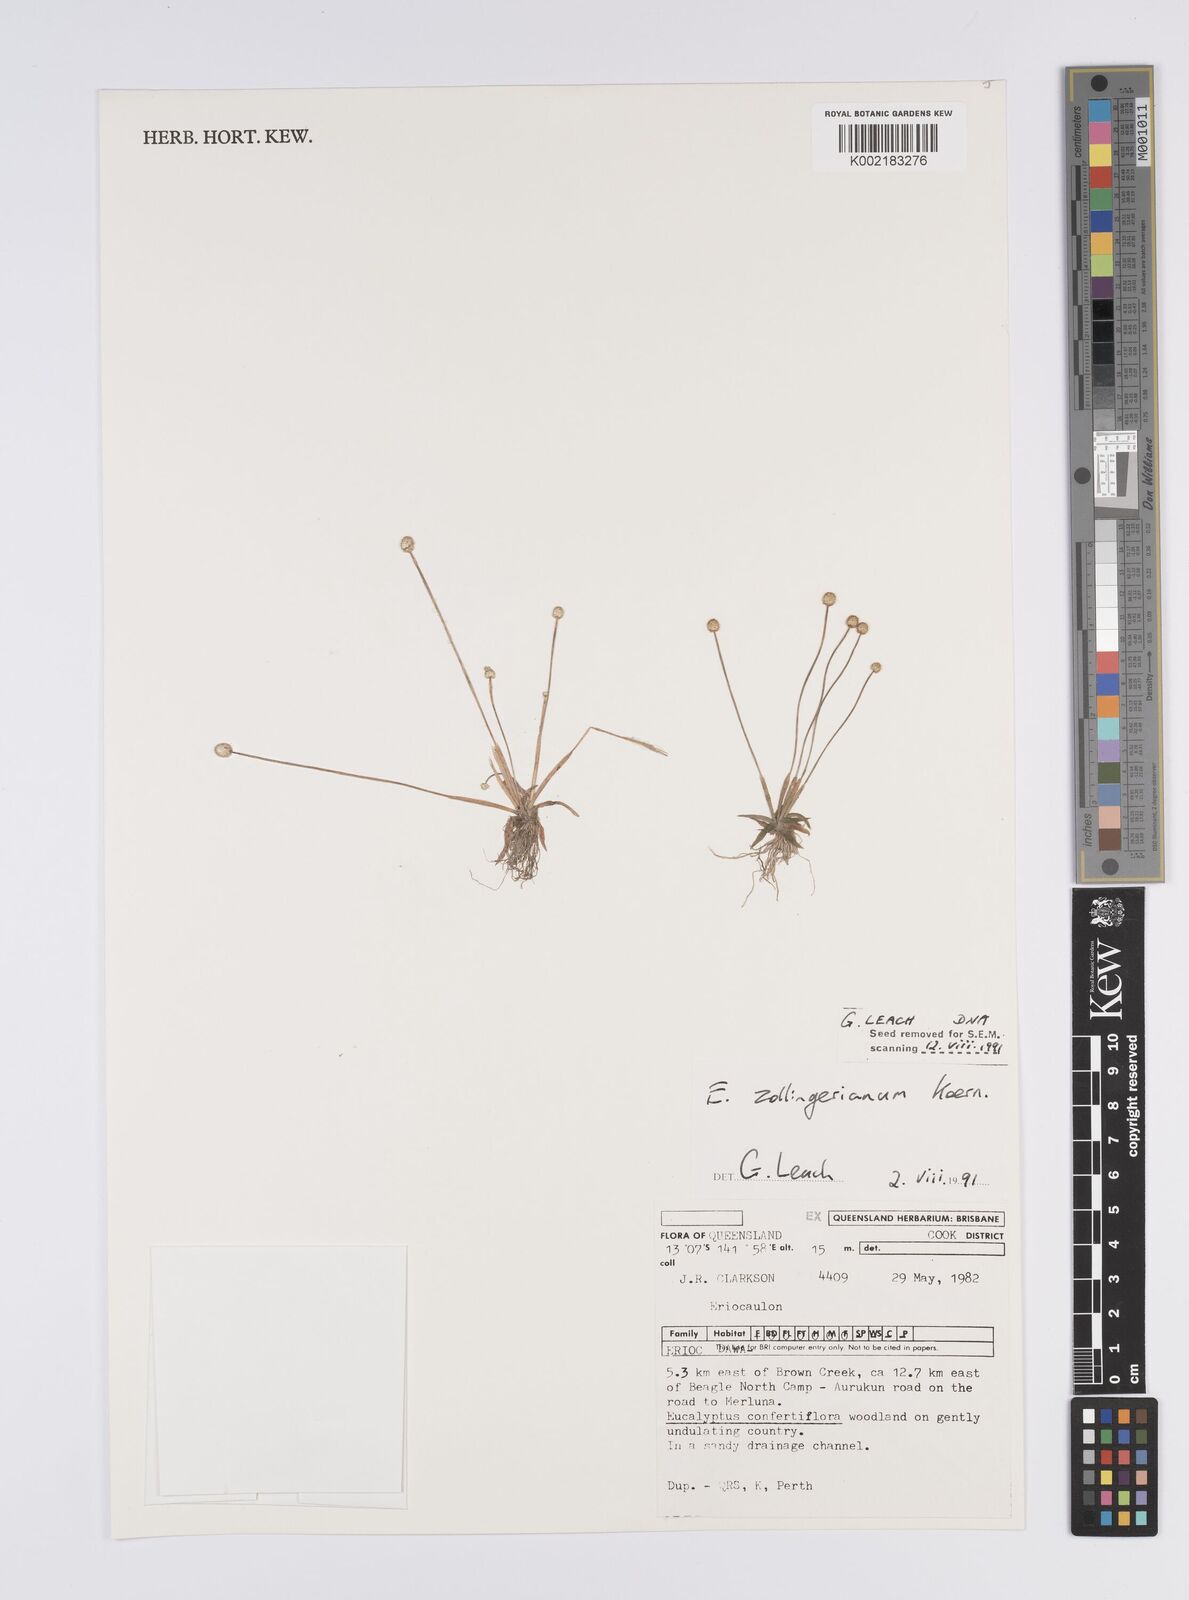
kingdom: Plantae
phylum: Tracheophyta
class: Liliopsida
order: Poales
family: Eriocaulaceae
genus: Eriocaulon
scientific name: Eriocaulon zollingerianum
